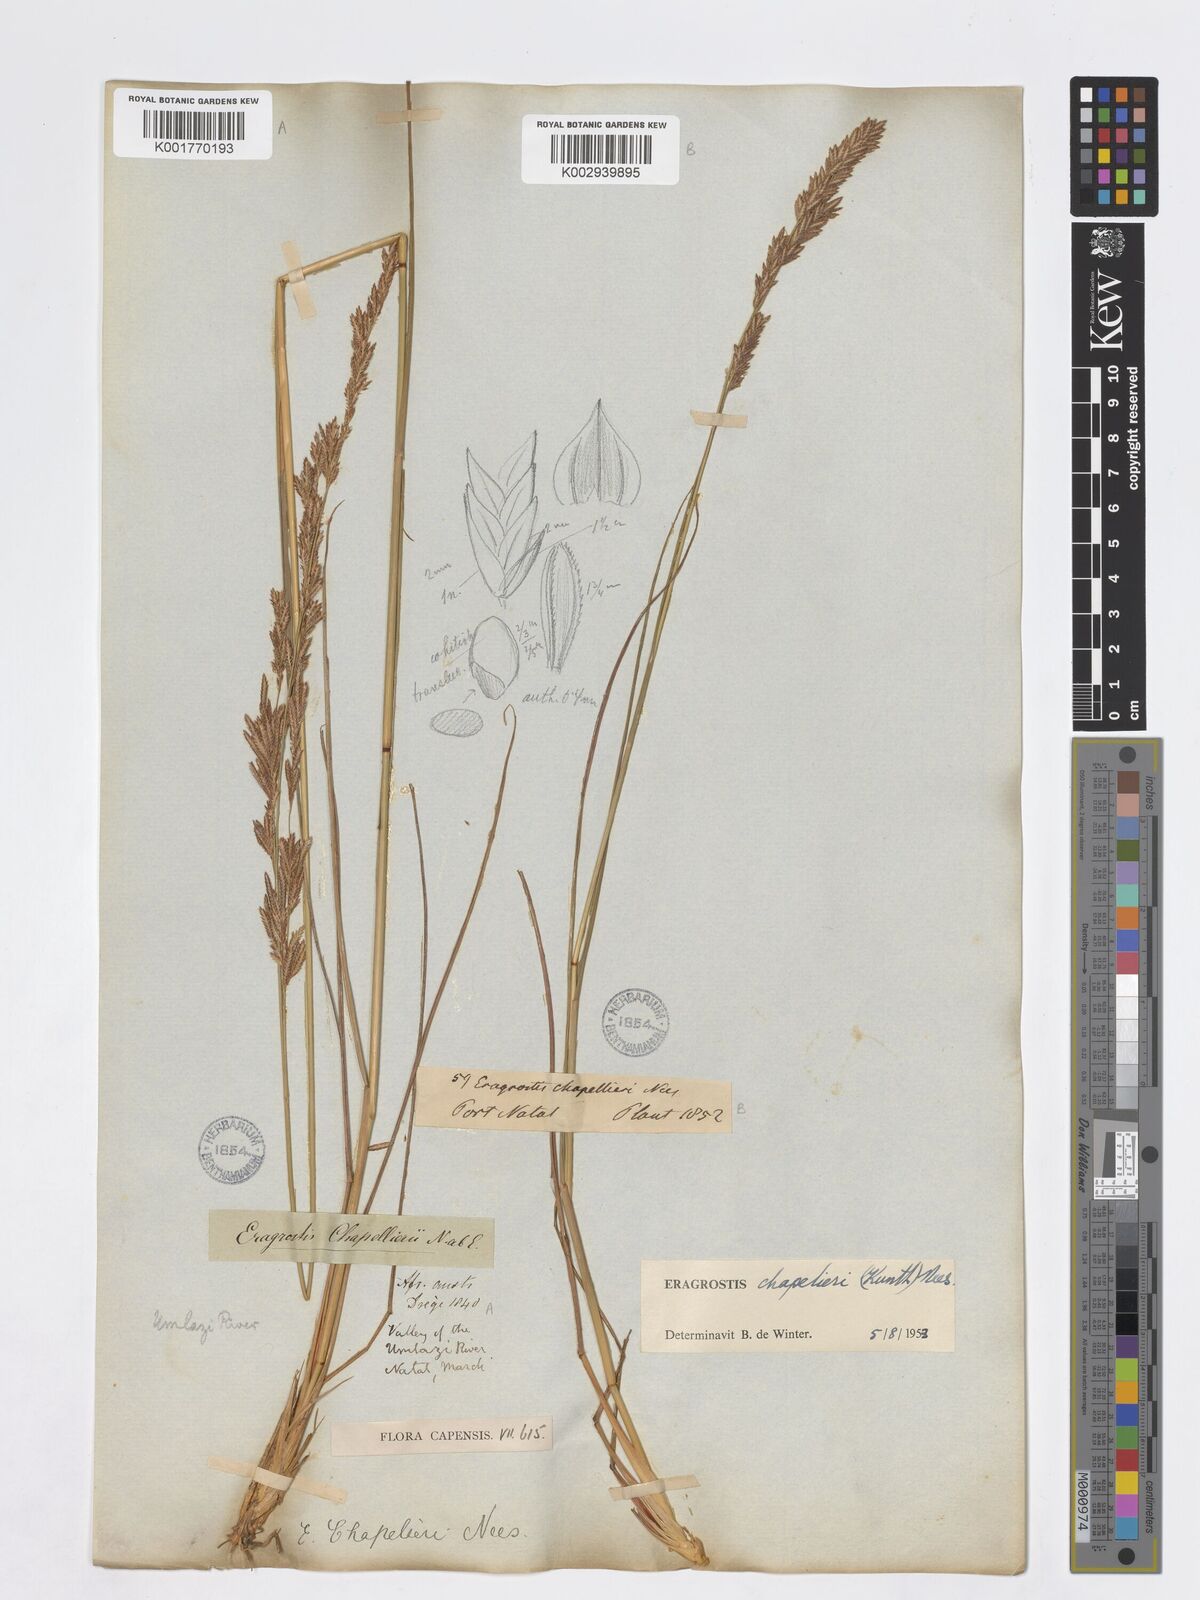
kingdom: Plantae
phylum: Tracheophyta
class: Liliopsida
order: Poales
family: Poaceae
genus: Eragrostis
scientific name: Eragrostis chapelieri
